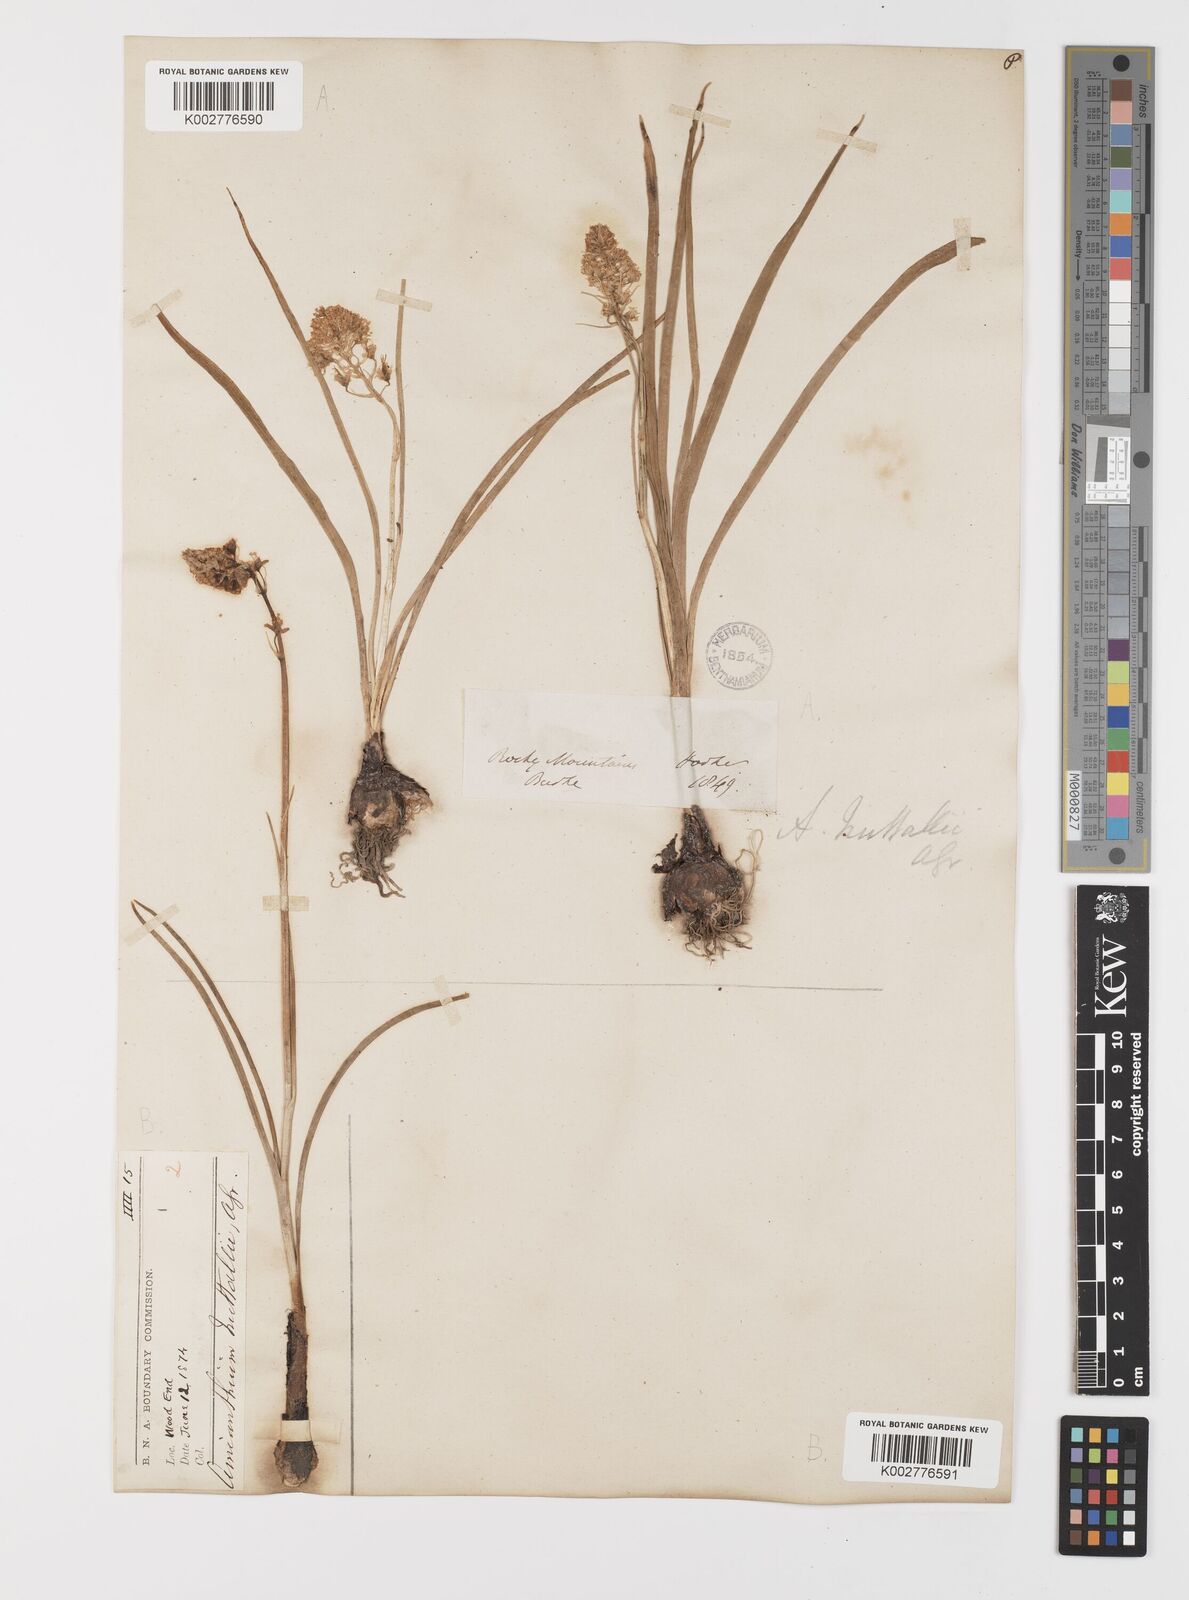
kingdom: Plantae
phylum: Tracheophyta
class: Liliopsida
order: Liliales
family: Melanthiaceae
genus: Toxicoscordion
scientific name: Toxicoscordion nuttallii
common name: Poison sego
